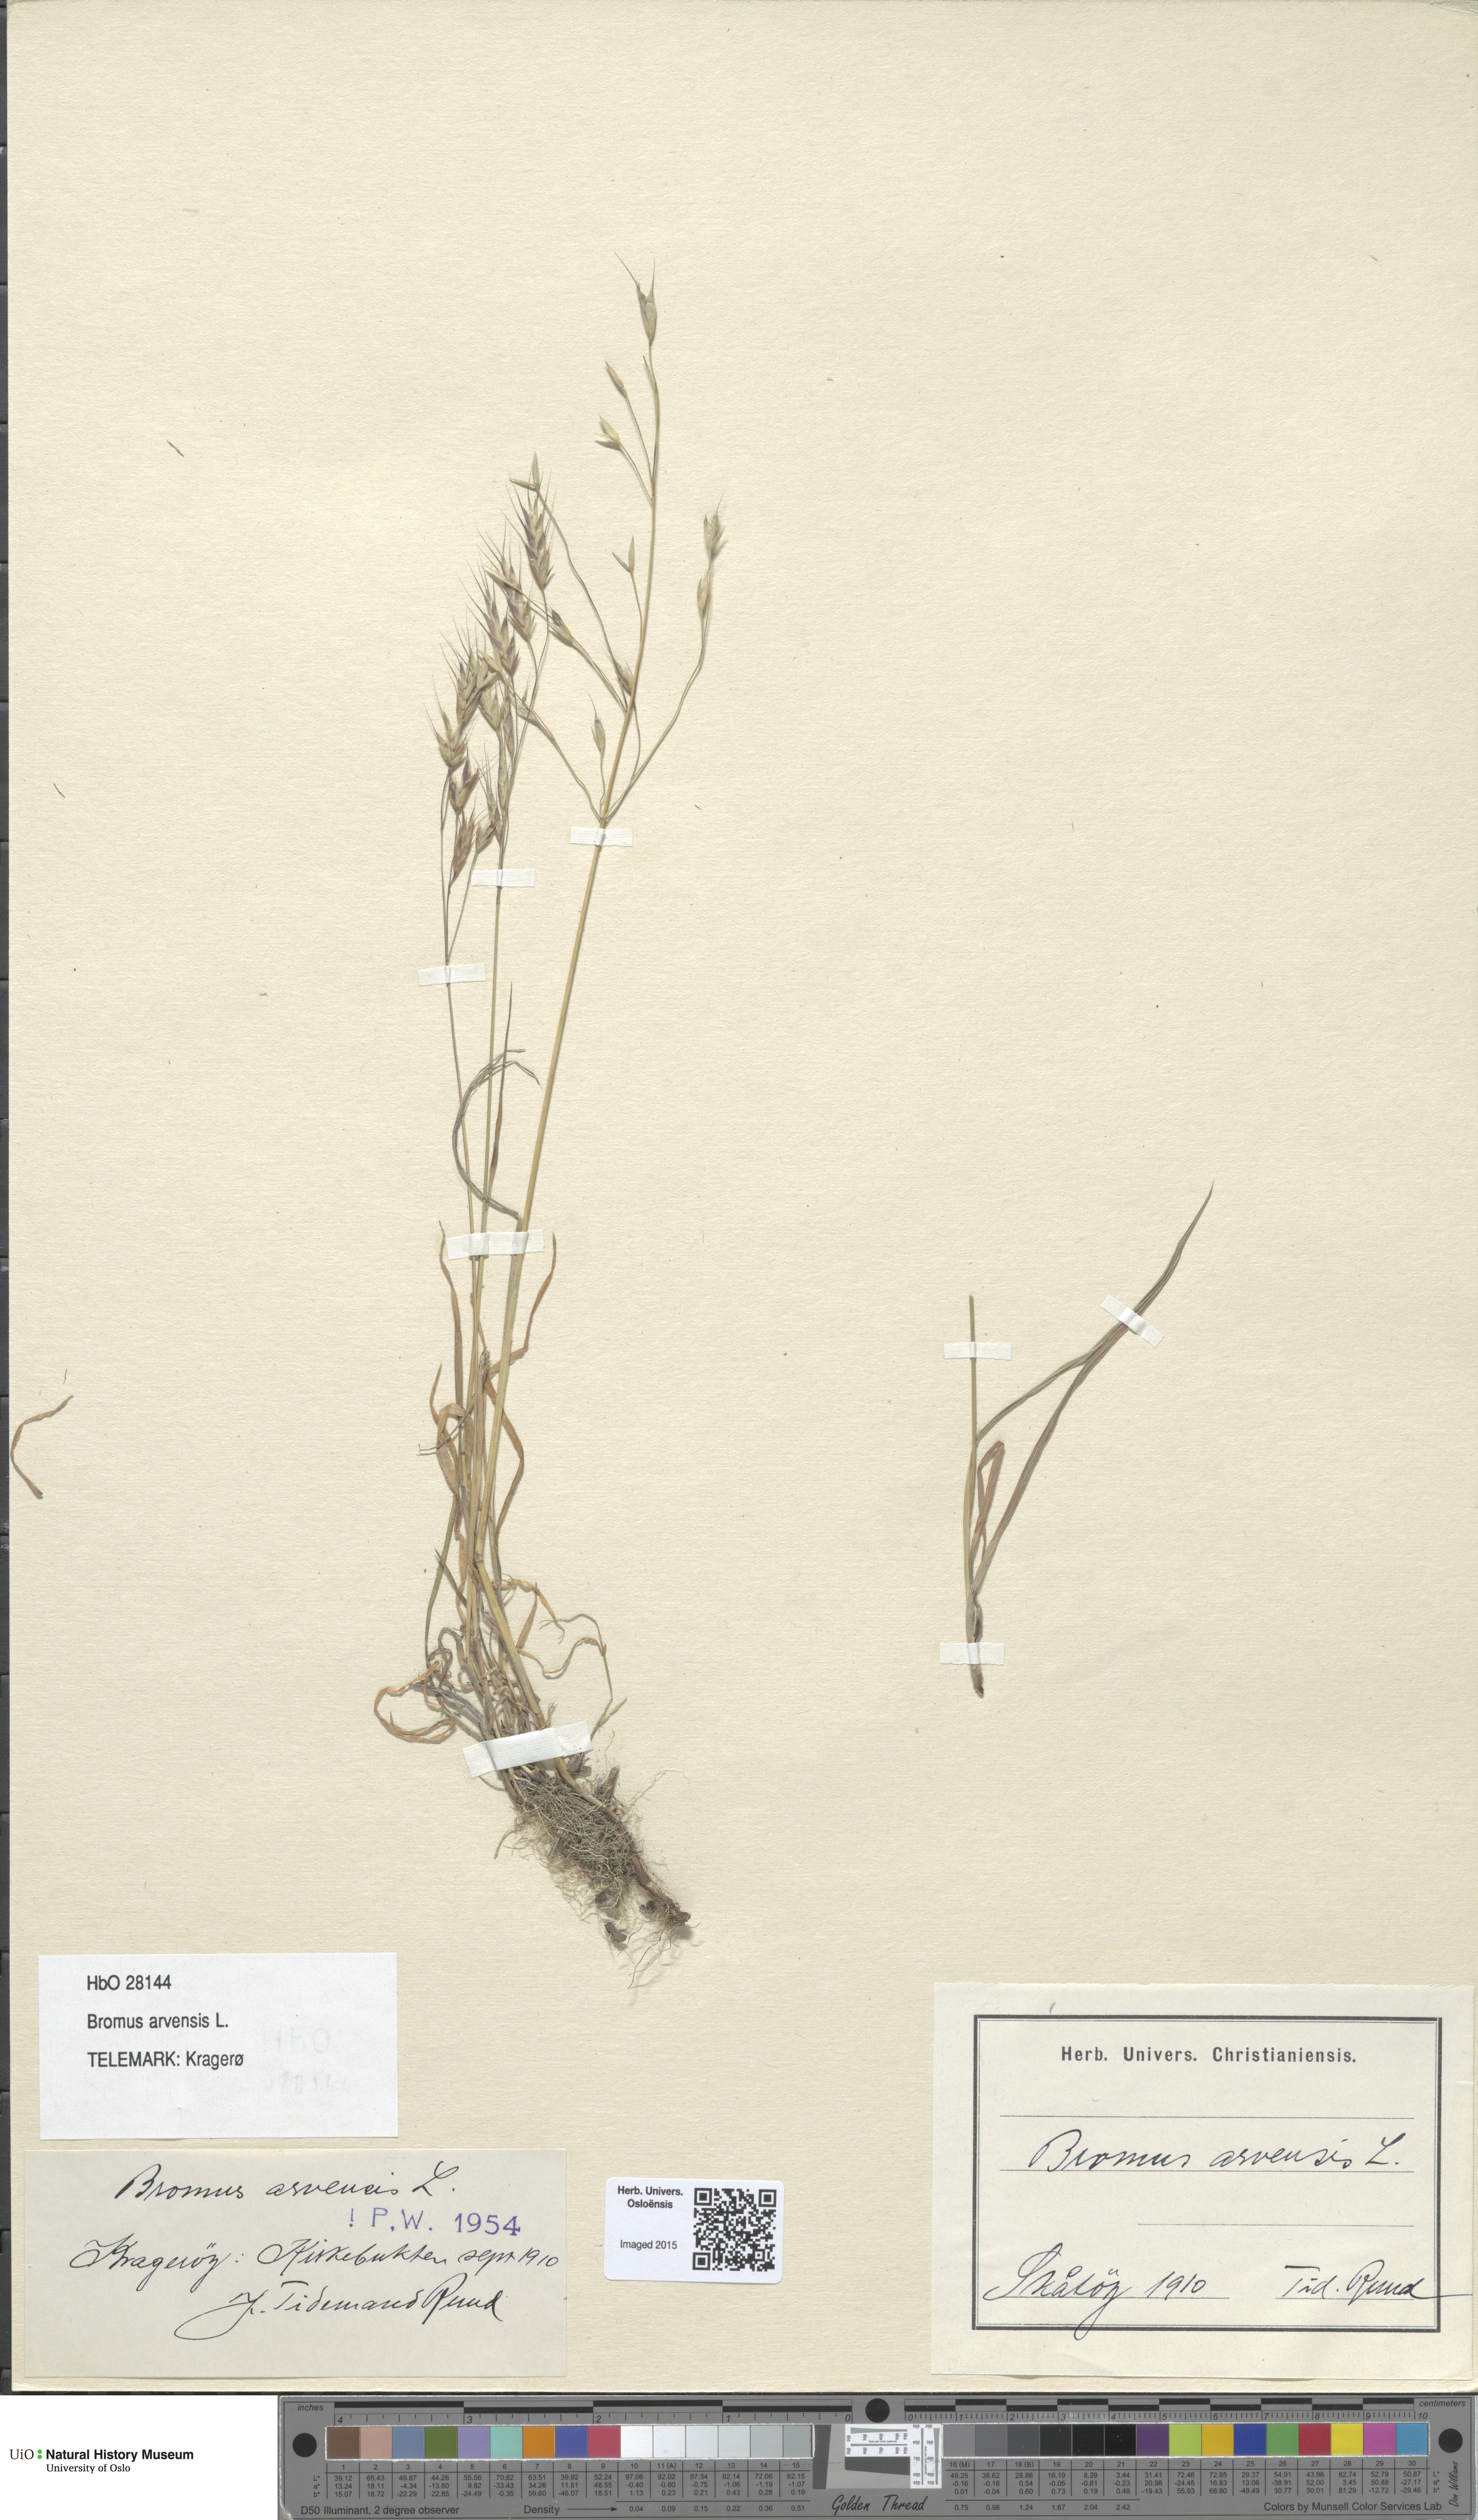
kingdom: Plantae
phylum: Tracheophyta
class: Liliopsida
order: Poales
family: Poaceae
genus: Bromus
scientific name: Bromus arvensis
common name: Field brome
